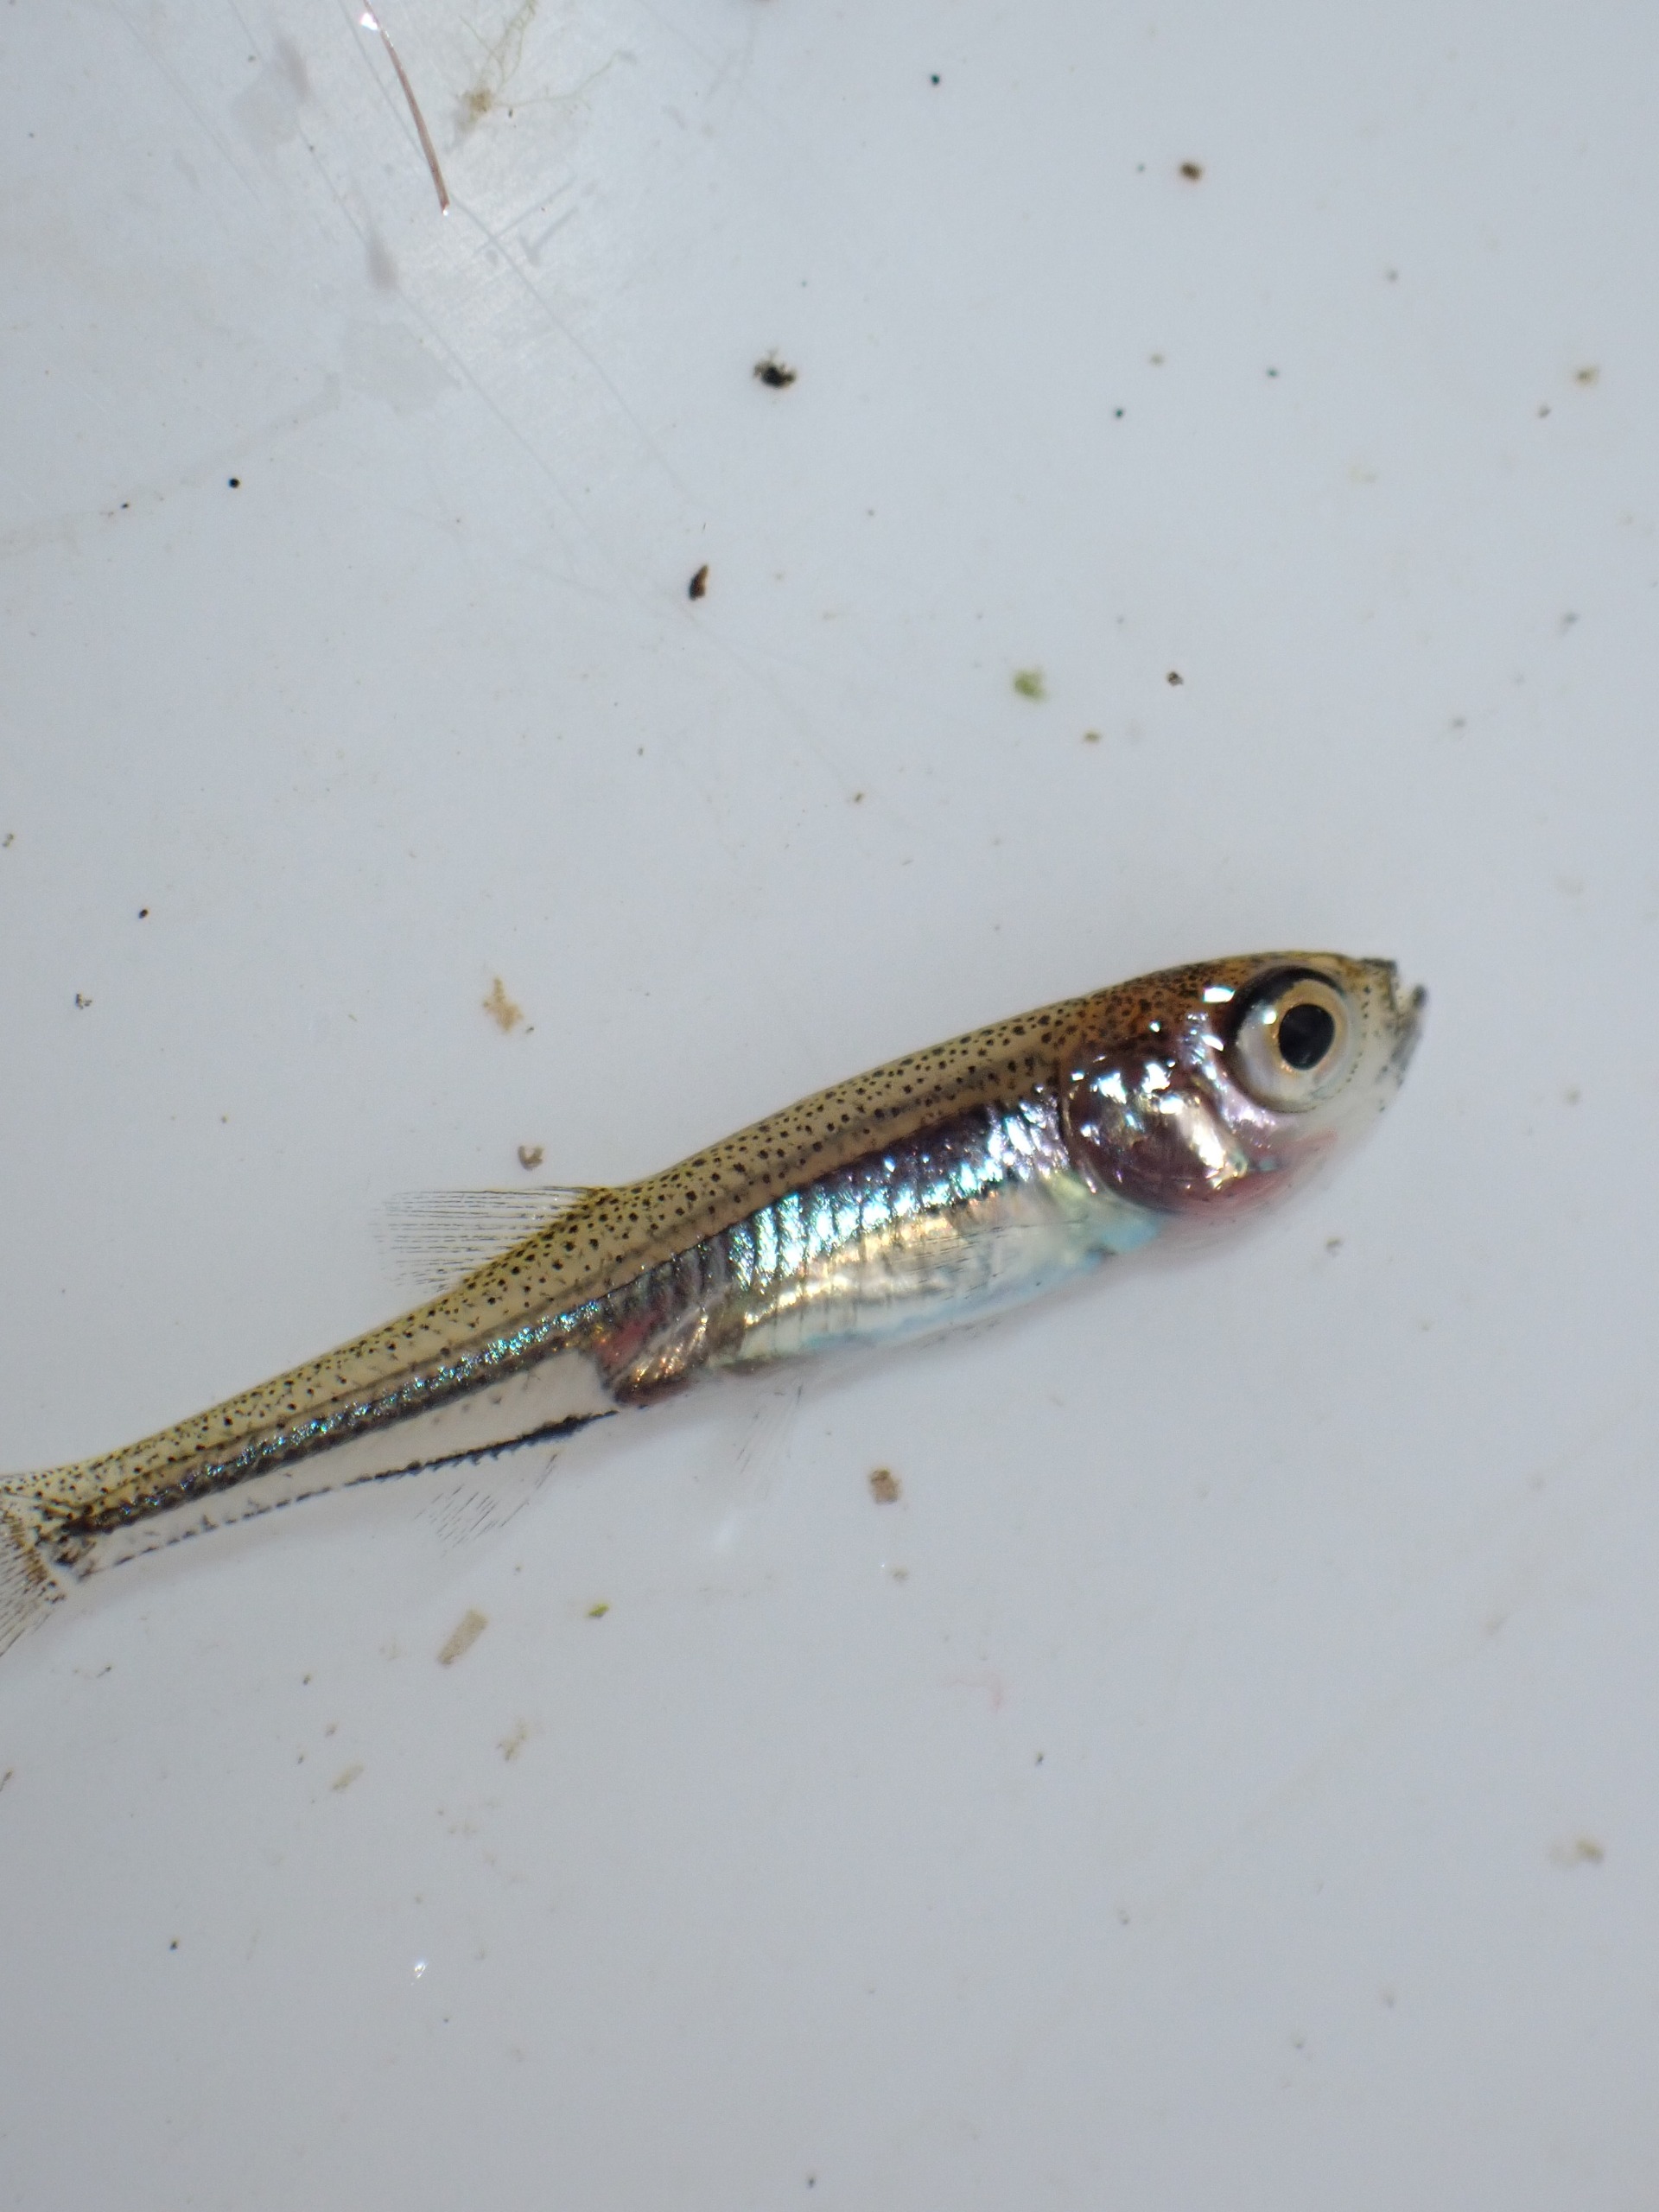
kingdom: Animalia
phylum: Chordata
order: Cypriniformes
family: Cyprinidae
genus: Leucaspius
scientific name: Leucaspius delineatus
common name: Regnløje
